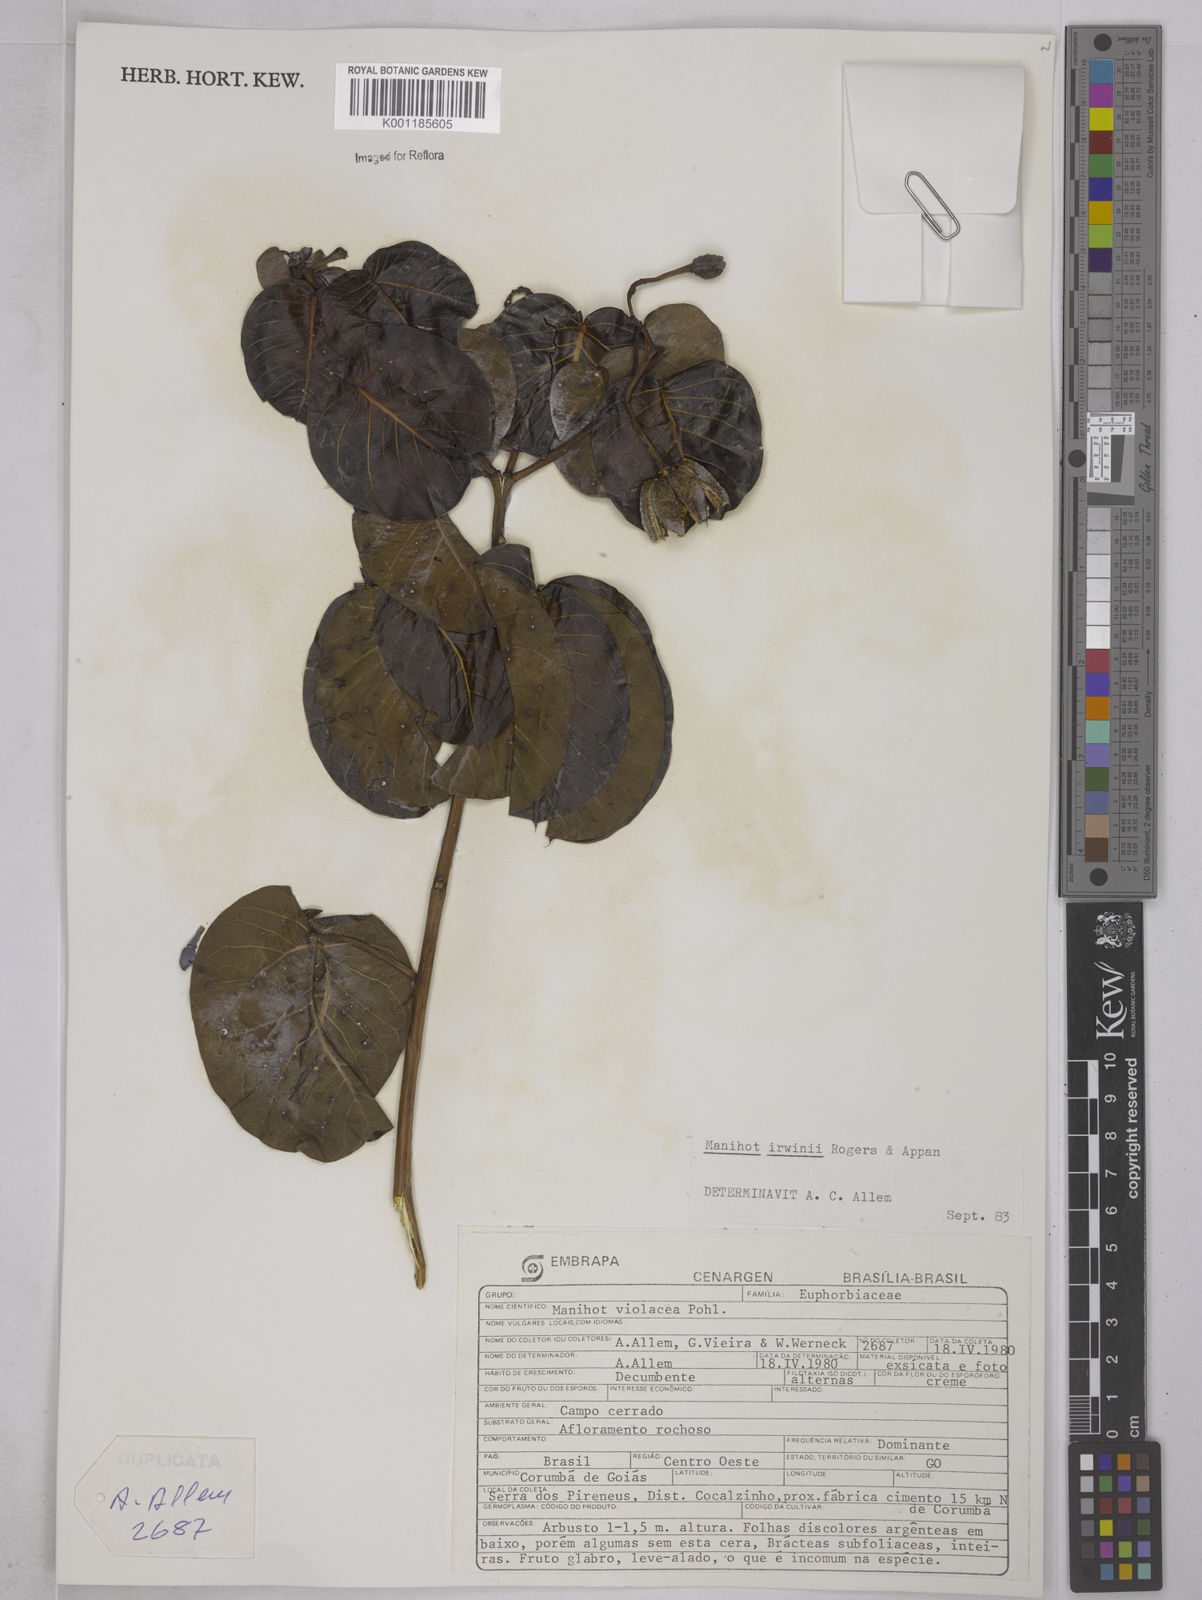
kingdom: Plantae
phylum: Tracheophyta
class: Magnoliopsida
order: Malpighiales
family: Euphorbiaceae
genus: Manihot
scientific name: Manihot irwinii
